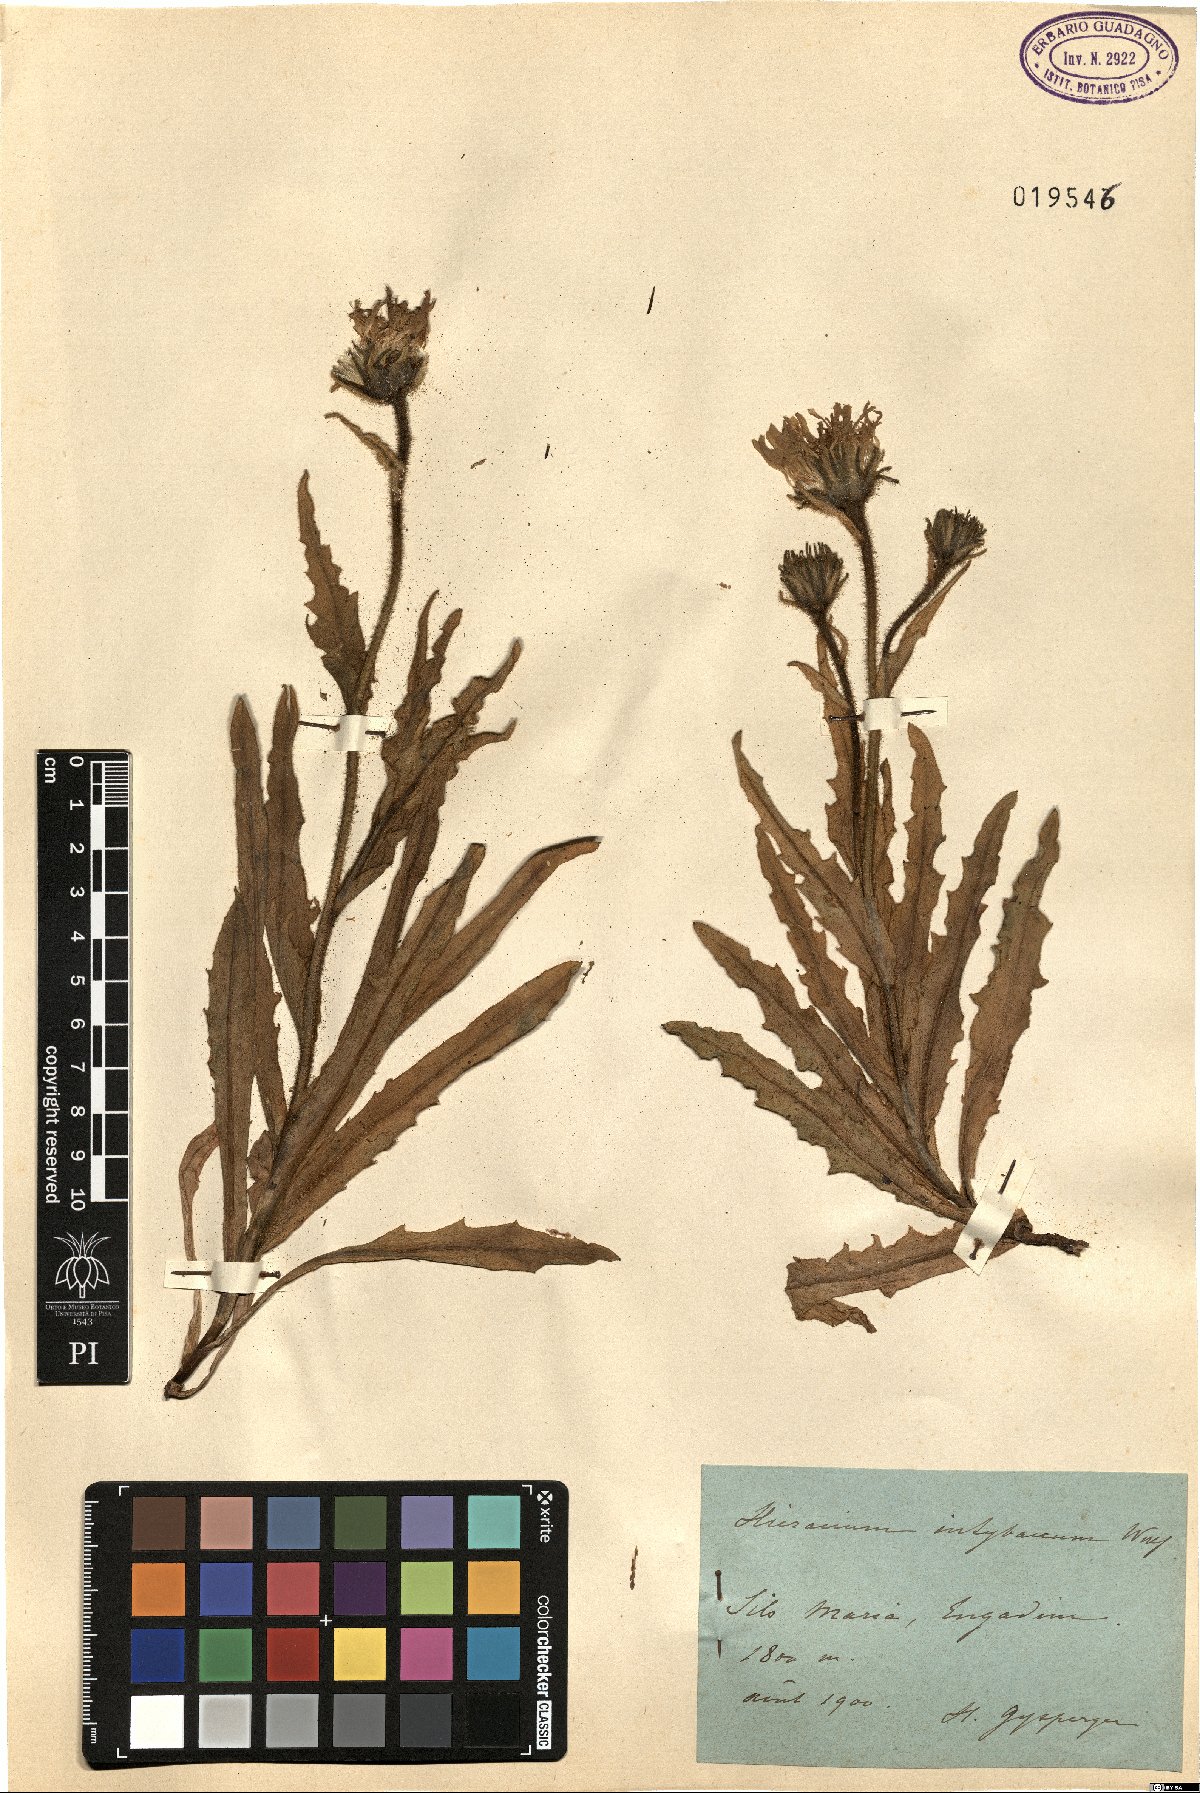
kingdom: Plantae
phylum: Tracheophyta
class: Magnoliopsida
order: Asterales
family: Asteraceae
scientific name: Asteraceae
